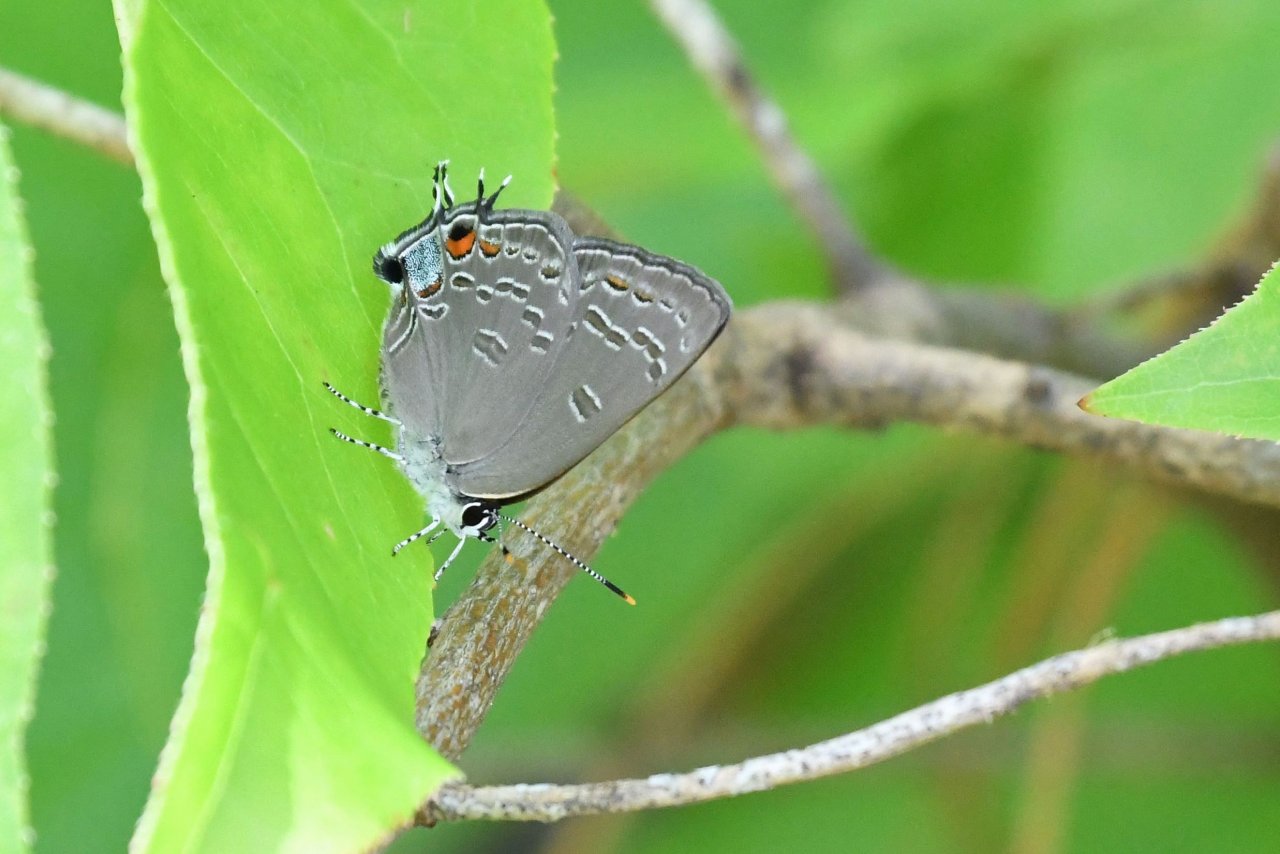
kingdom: Animalia
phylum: Arthropoda
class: Insecta
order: Lepidoptera
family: Lycaenidae
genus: Strymon
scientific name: Strymon kingi
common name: King's Hairstreak
